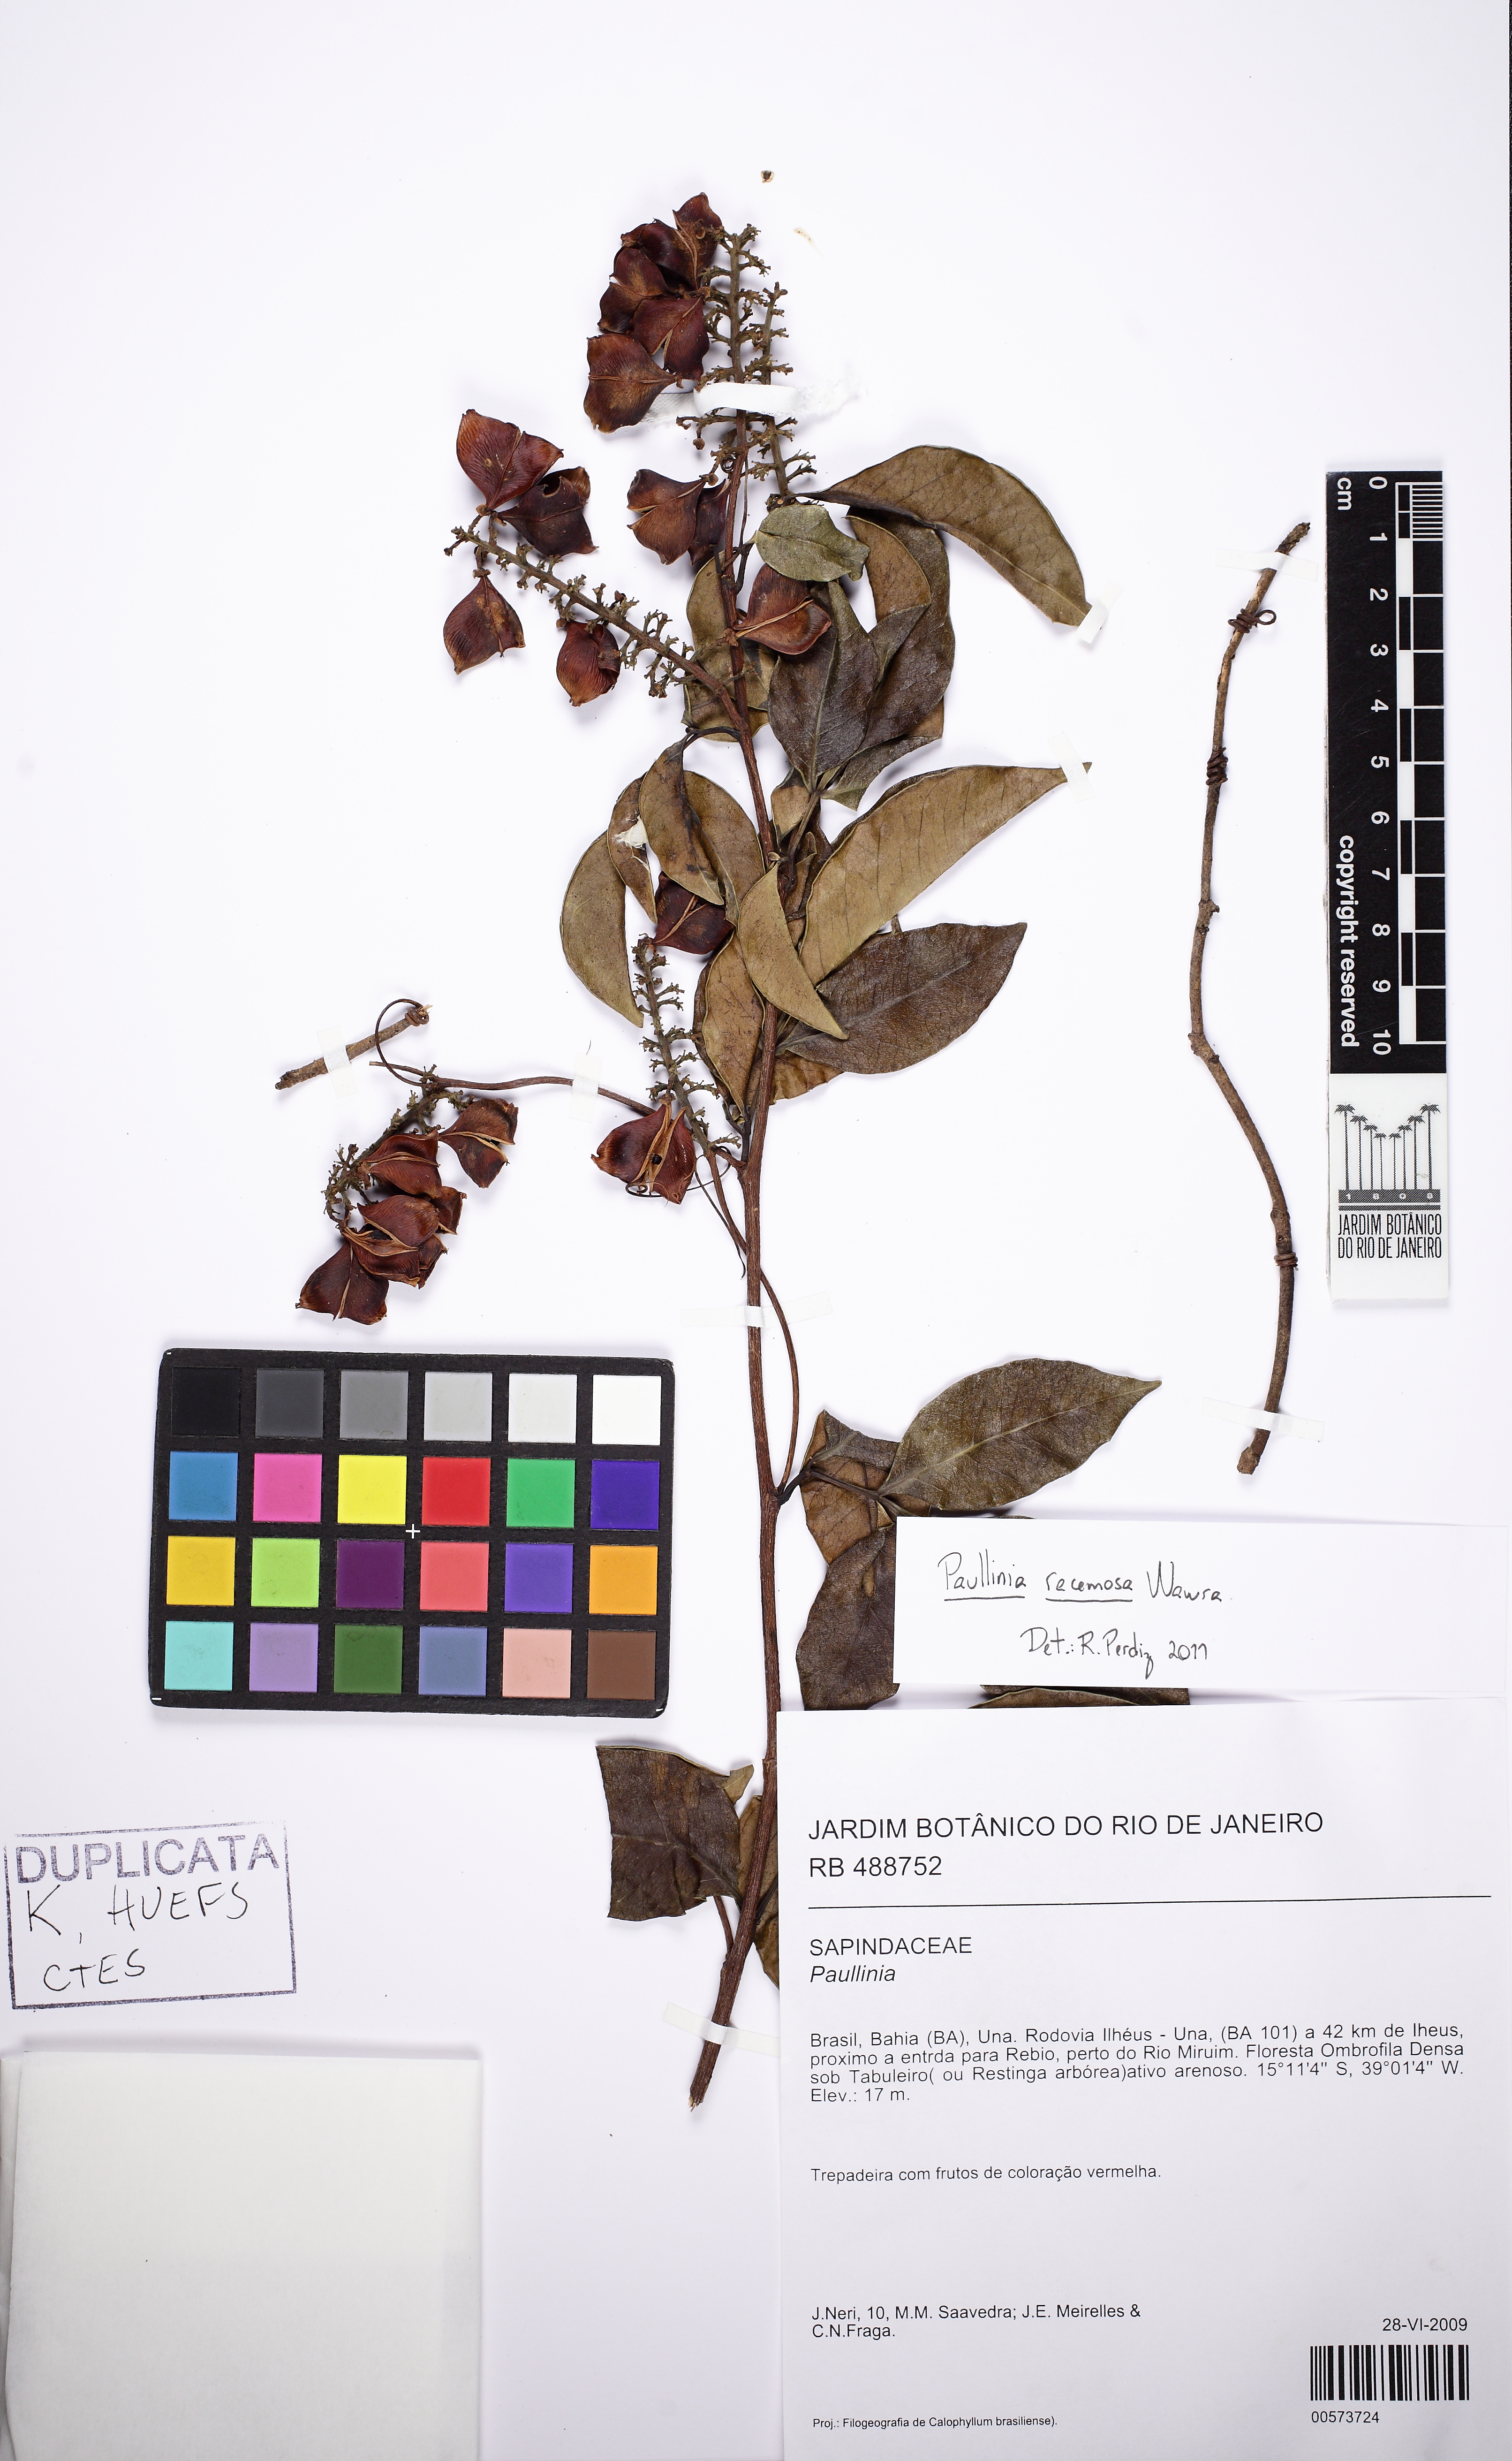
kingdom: Plantae
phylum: Tracheophyta
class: Magnoliopsida
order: Sapindales
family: Sapindaceae
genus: Paullinia
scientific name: Paullinia pseudota
